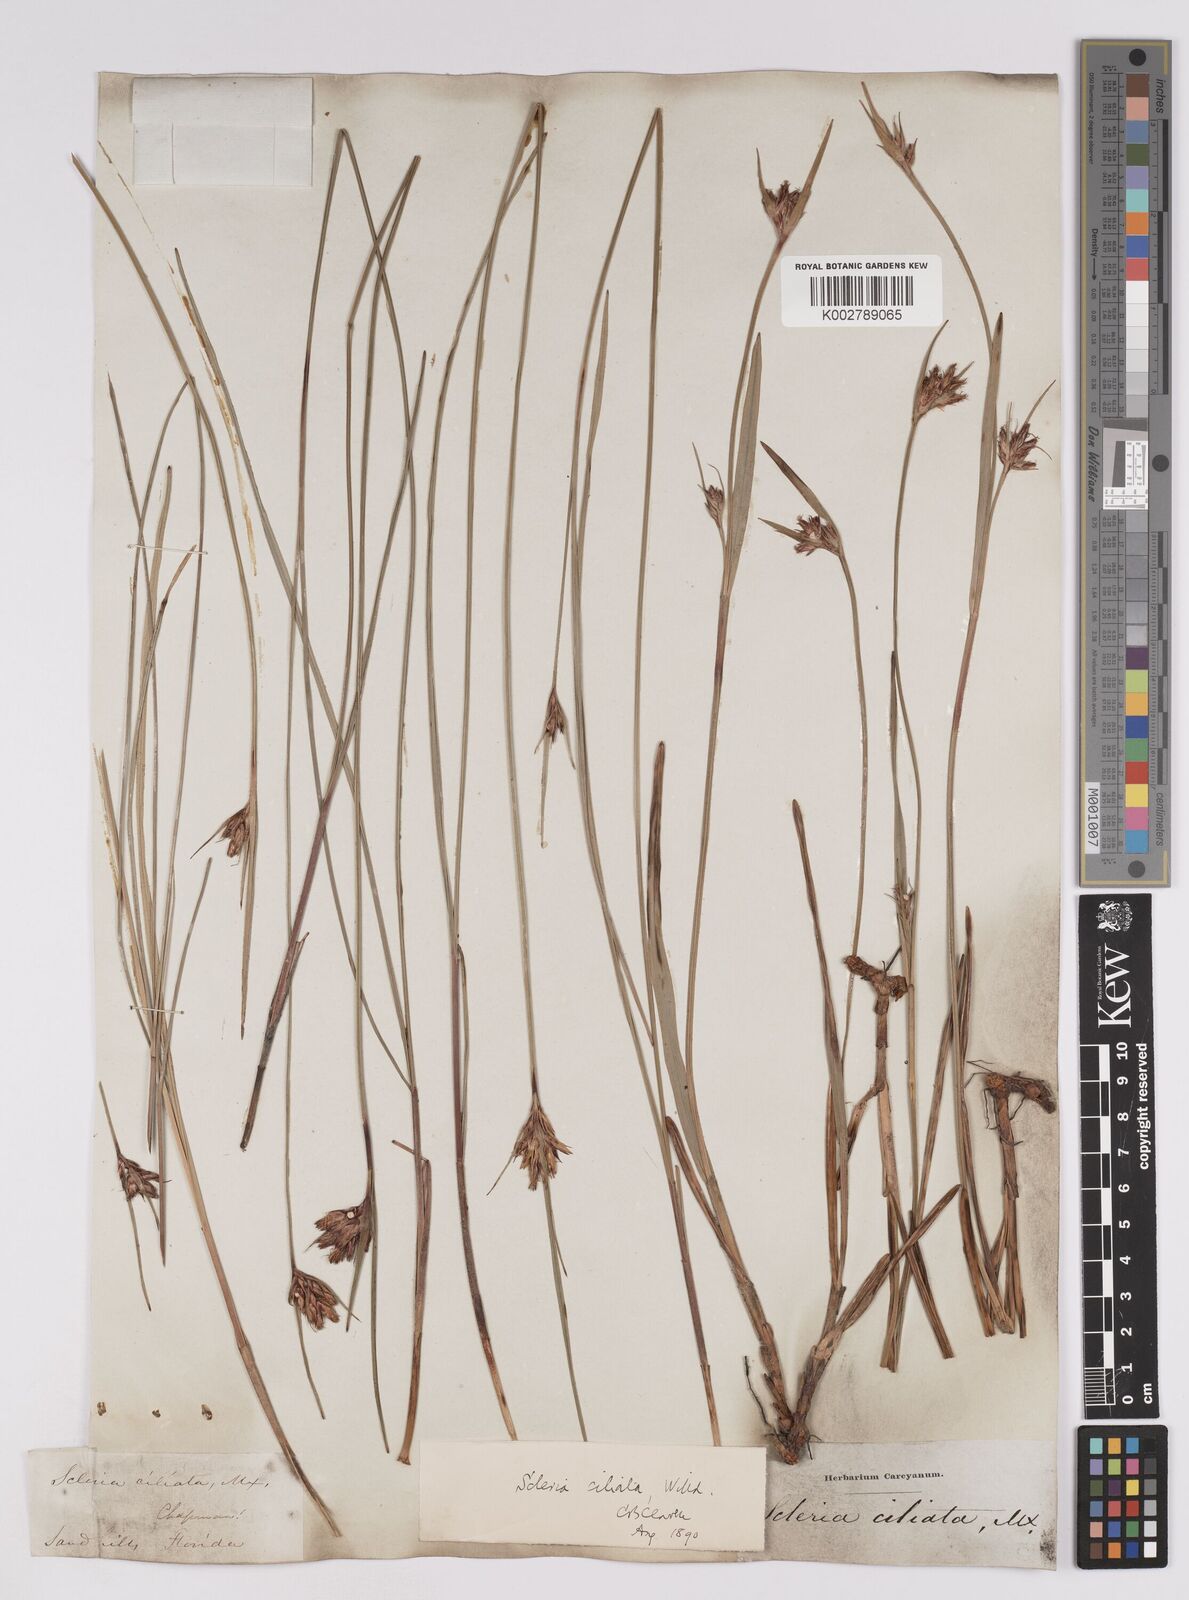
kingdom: Plantae
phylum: Tracheophyta
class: Liliopsida
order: Poales
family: Cyperaceae
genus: Scleria
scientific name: Scleria ciliata
